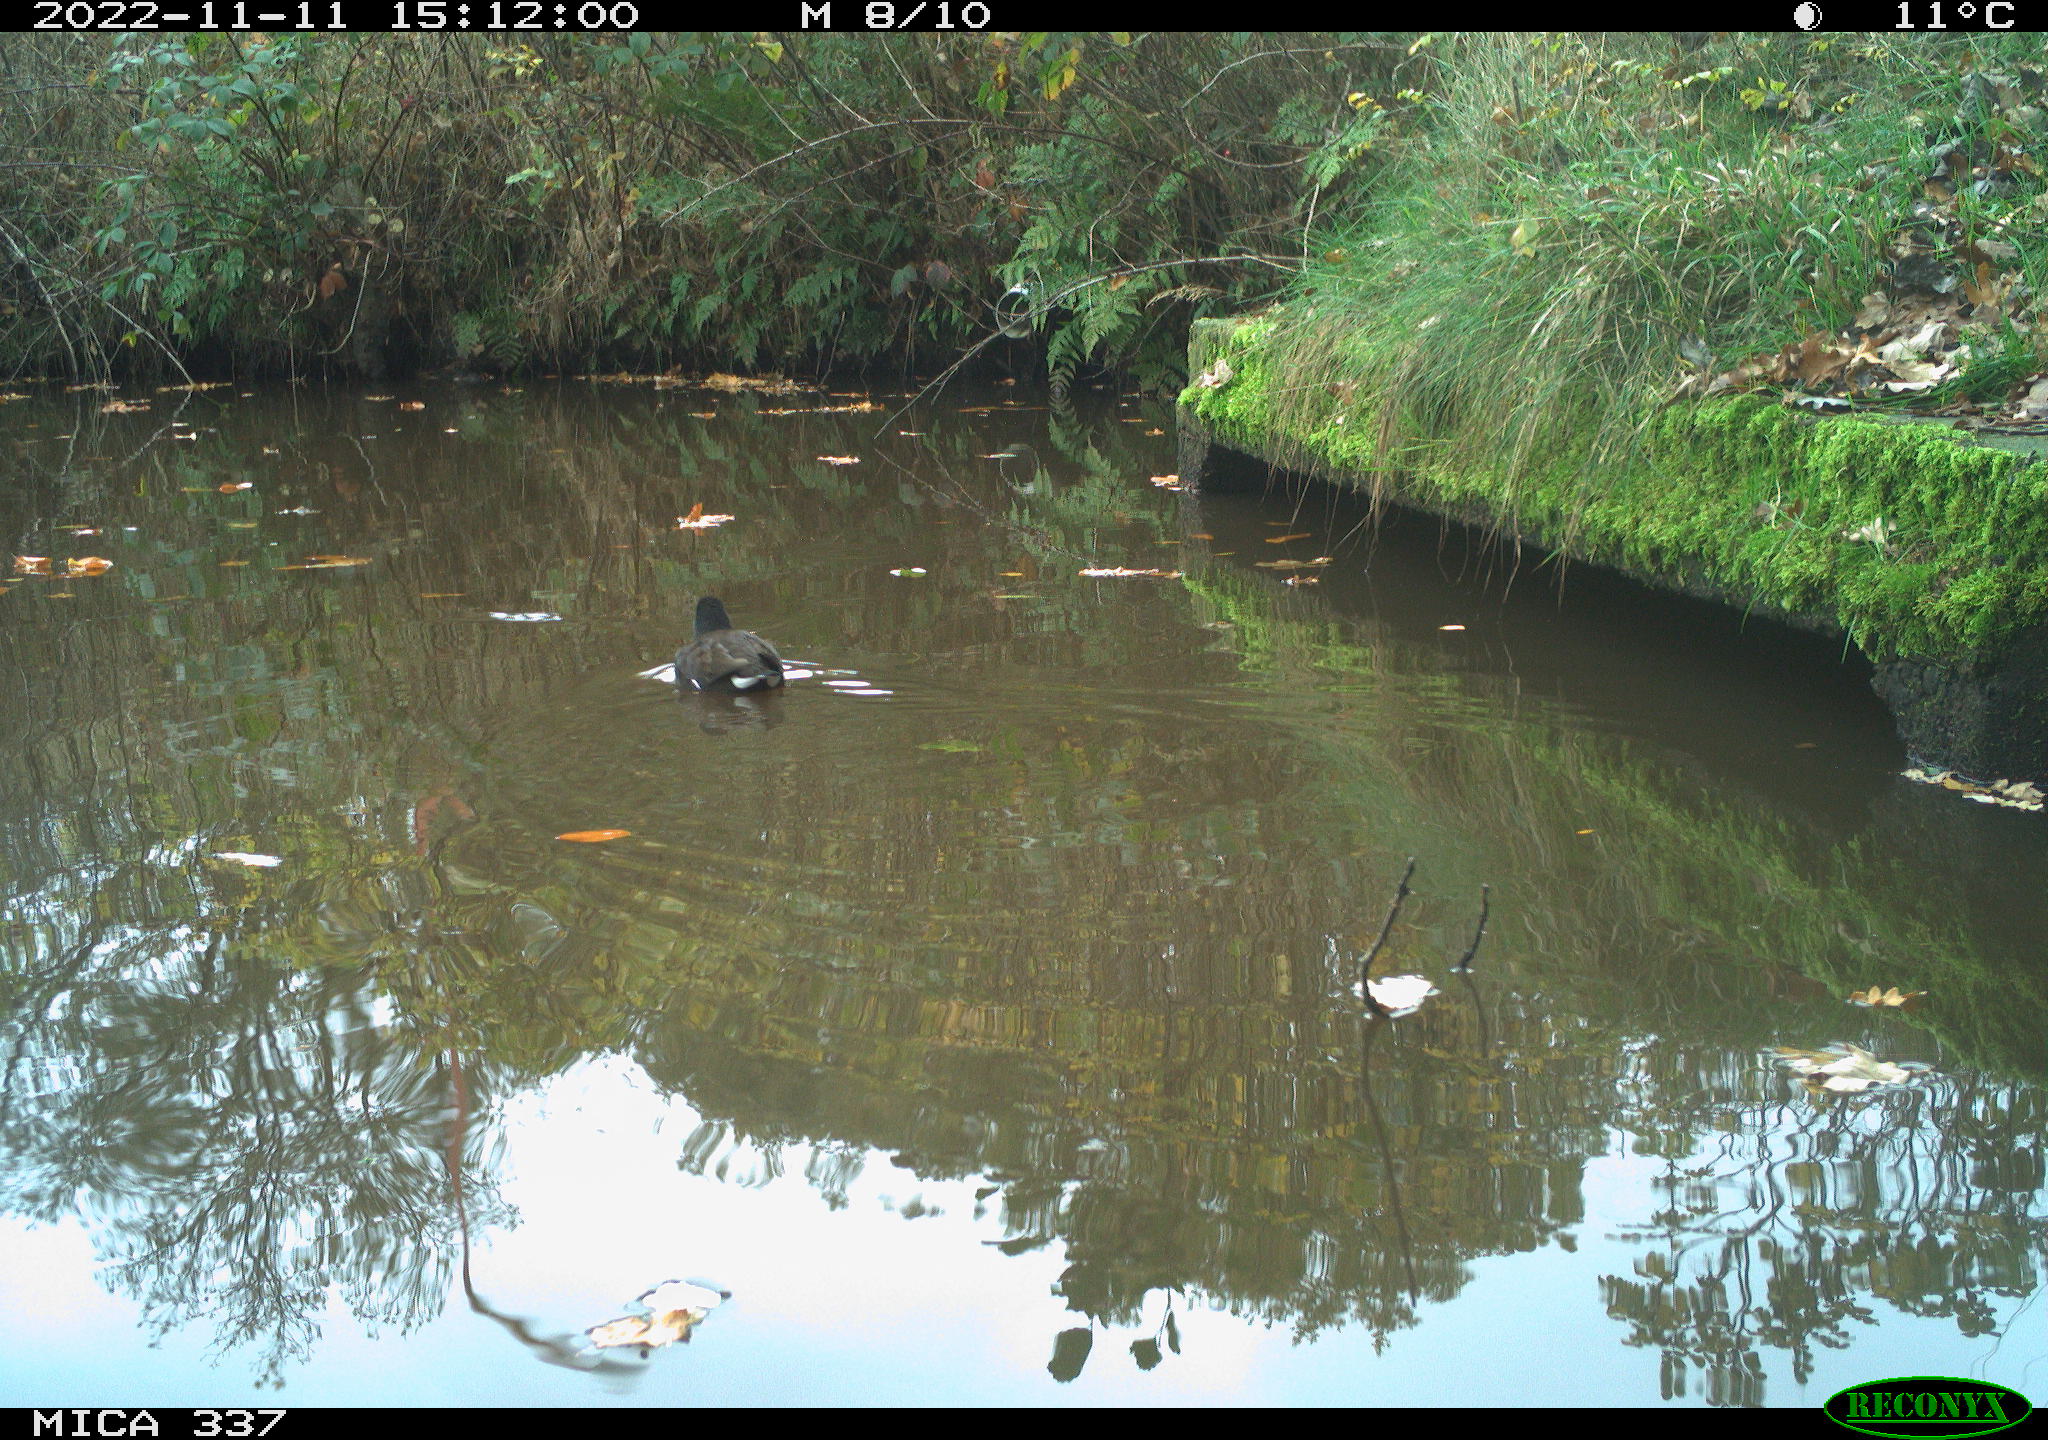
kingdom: Animalia
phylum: Chordata
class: Aves
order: Gruiformes
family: Rallidae
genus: Gallinula
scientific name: Gallinula chloropus
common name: Common moorhen
